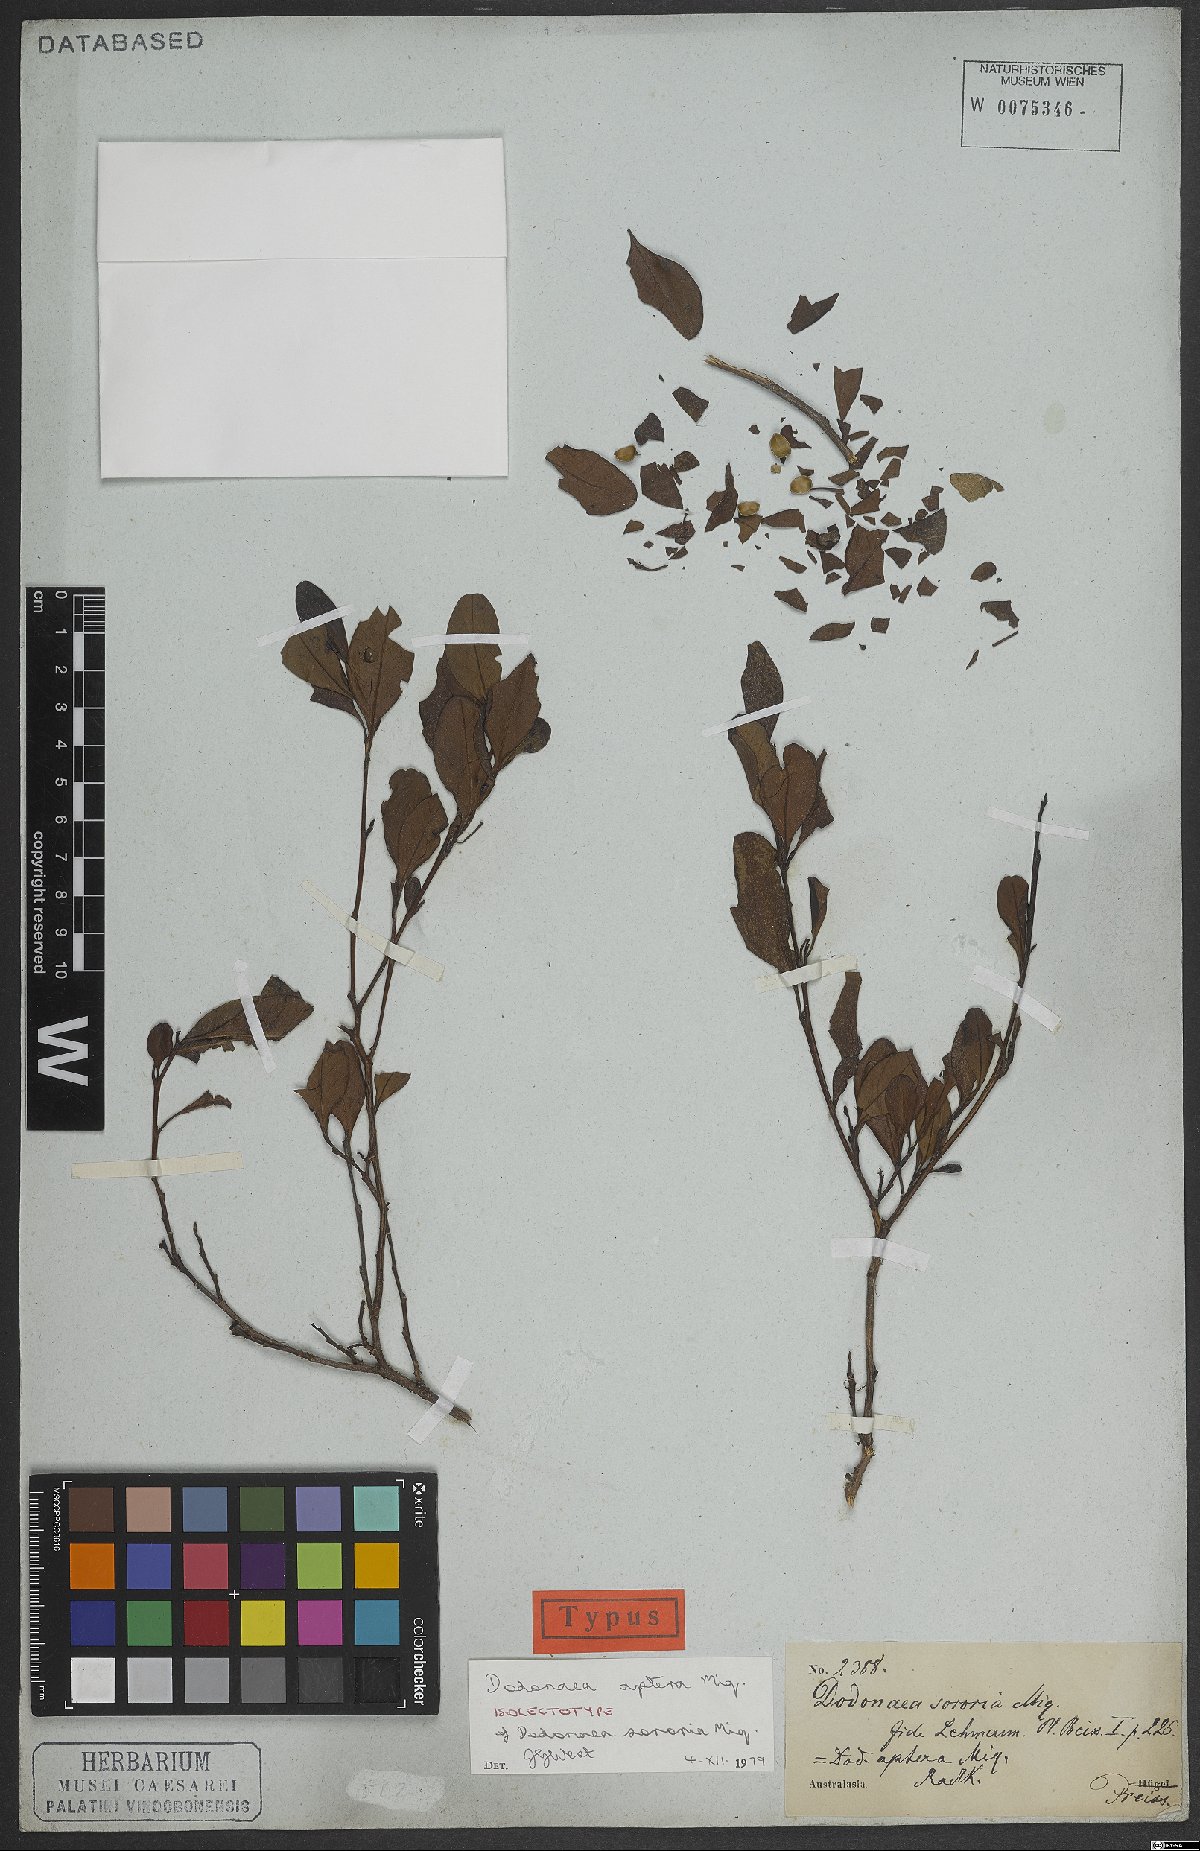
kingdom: Plantae
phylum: Tracheophyta
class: Magnoliopsida
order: Sapindales
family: Sapindaceae
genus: Dodonaea
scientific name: Dodonaea aptera
